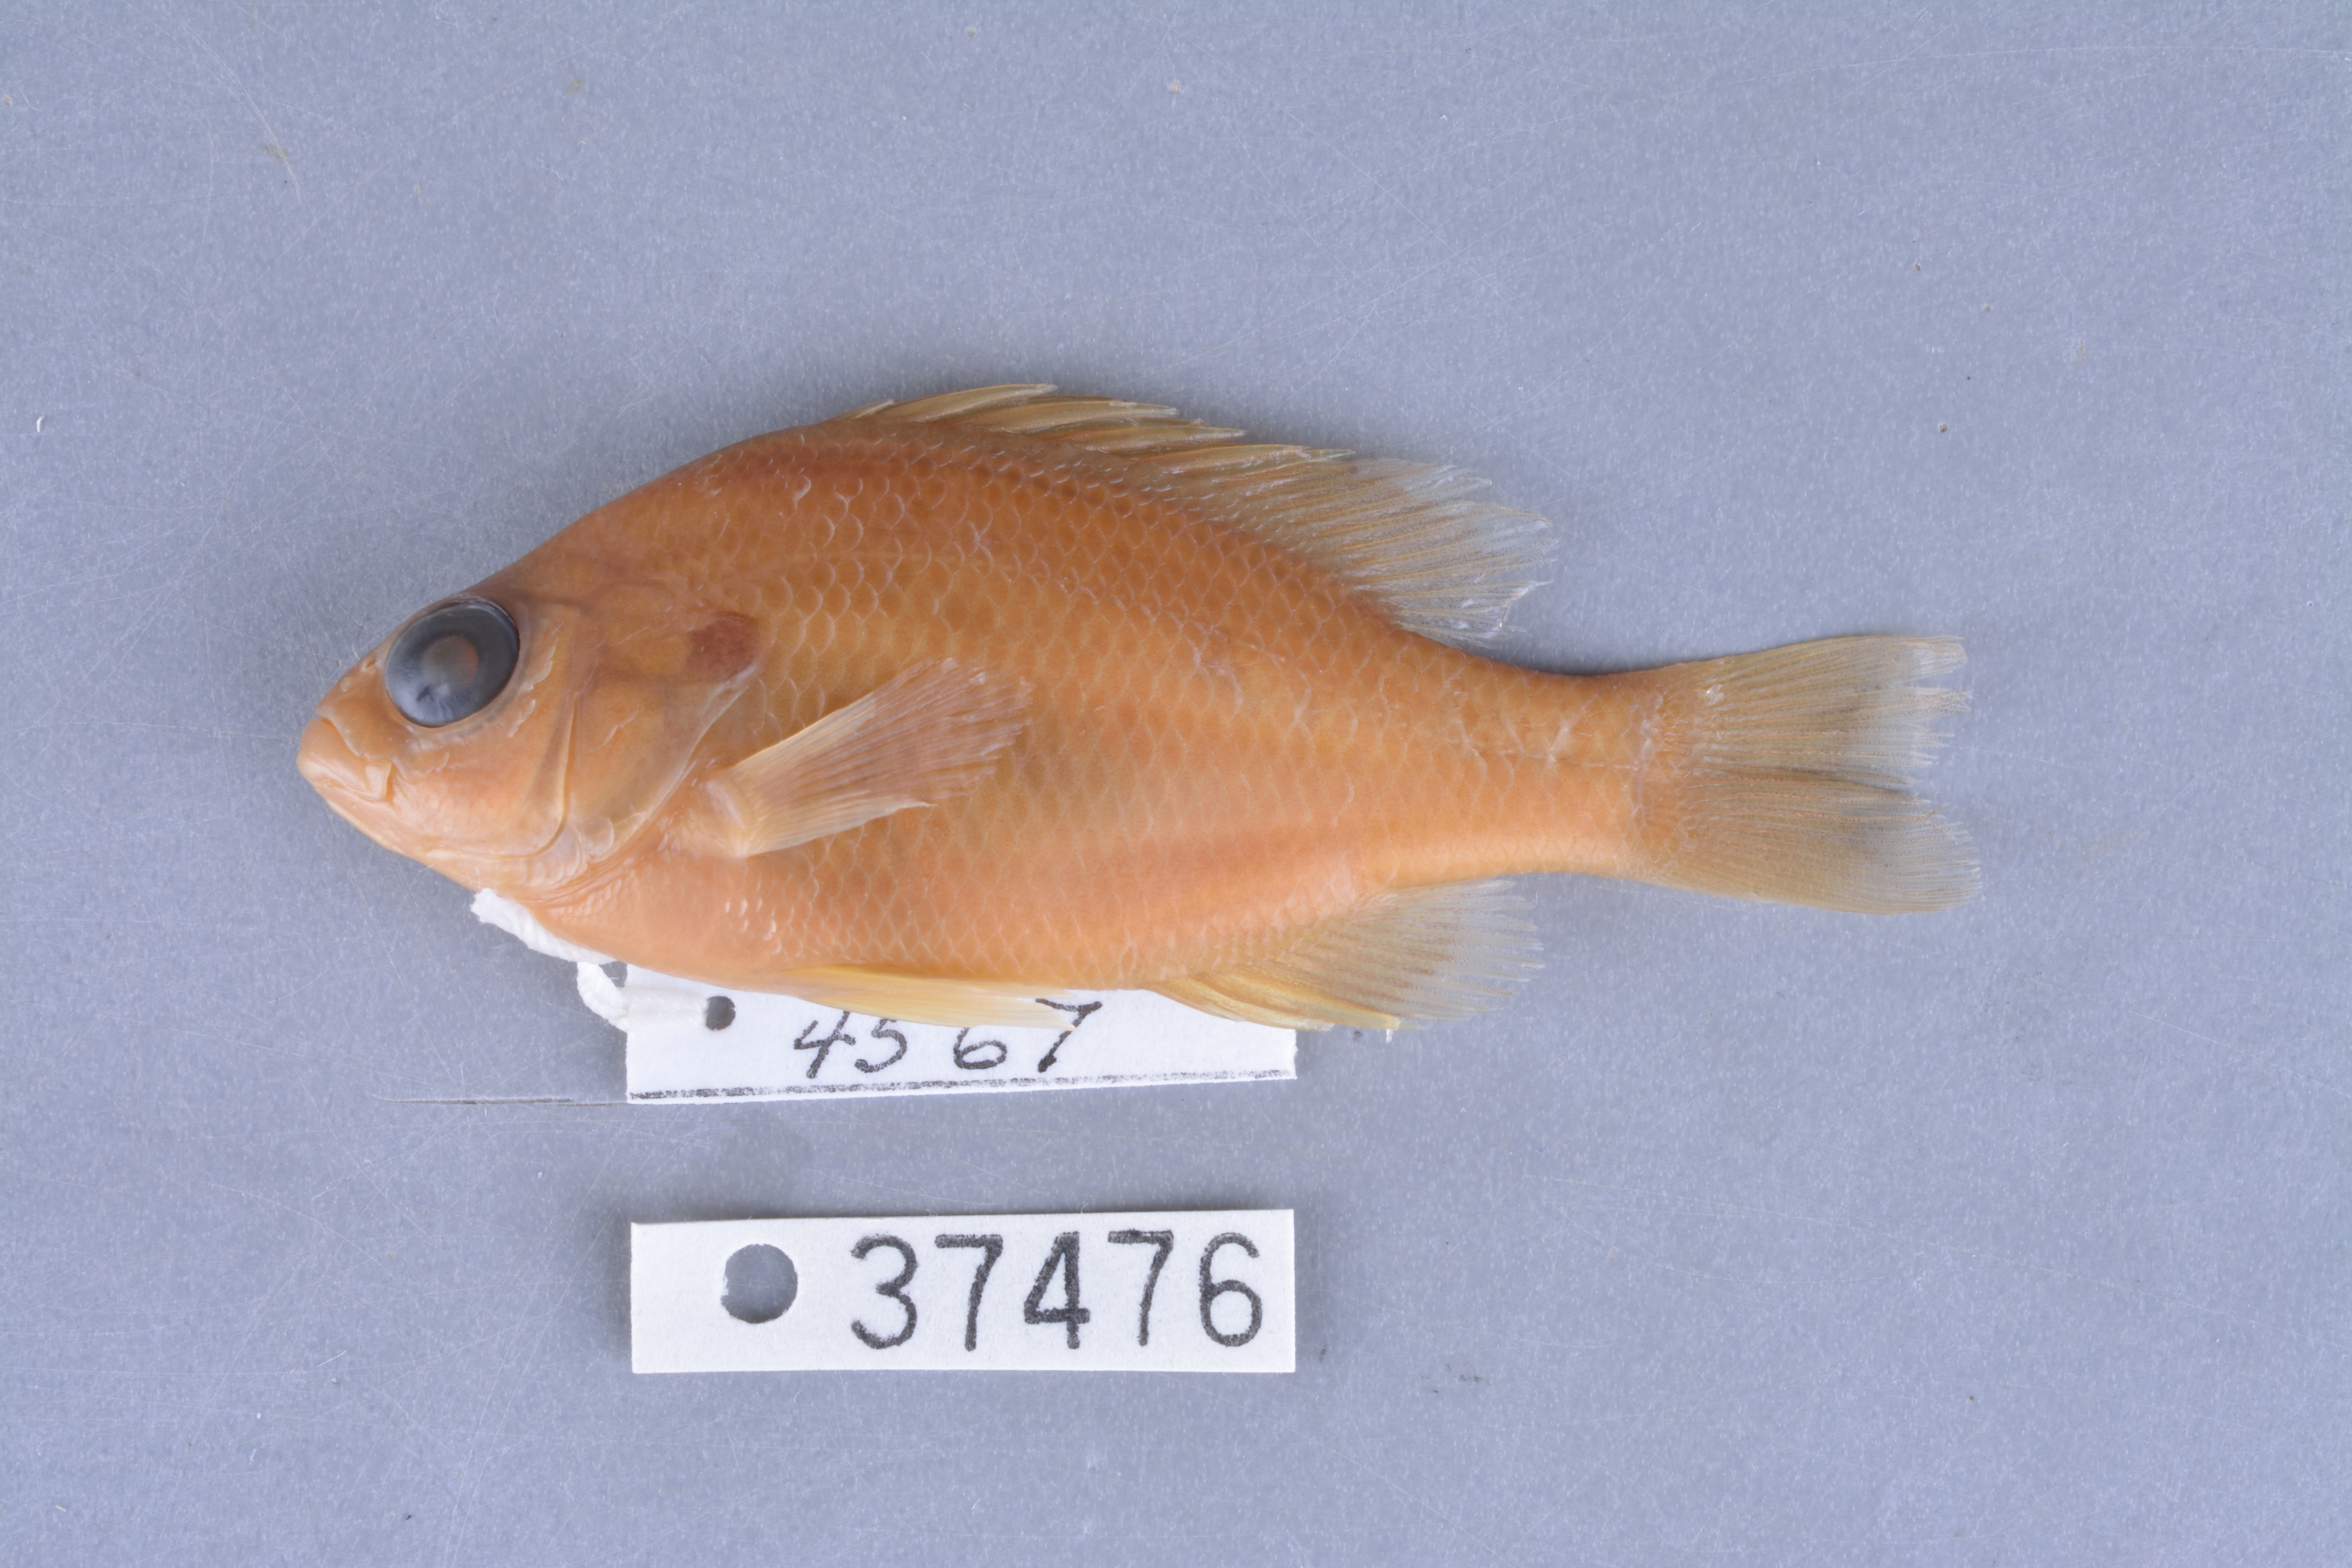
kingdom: Animalia
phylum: Chordata
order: Perciformes
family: Centrarchidae
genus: Lepomis
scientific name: Lepomis megalotis
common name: Longear sunfish
